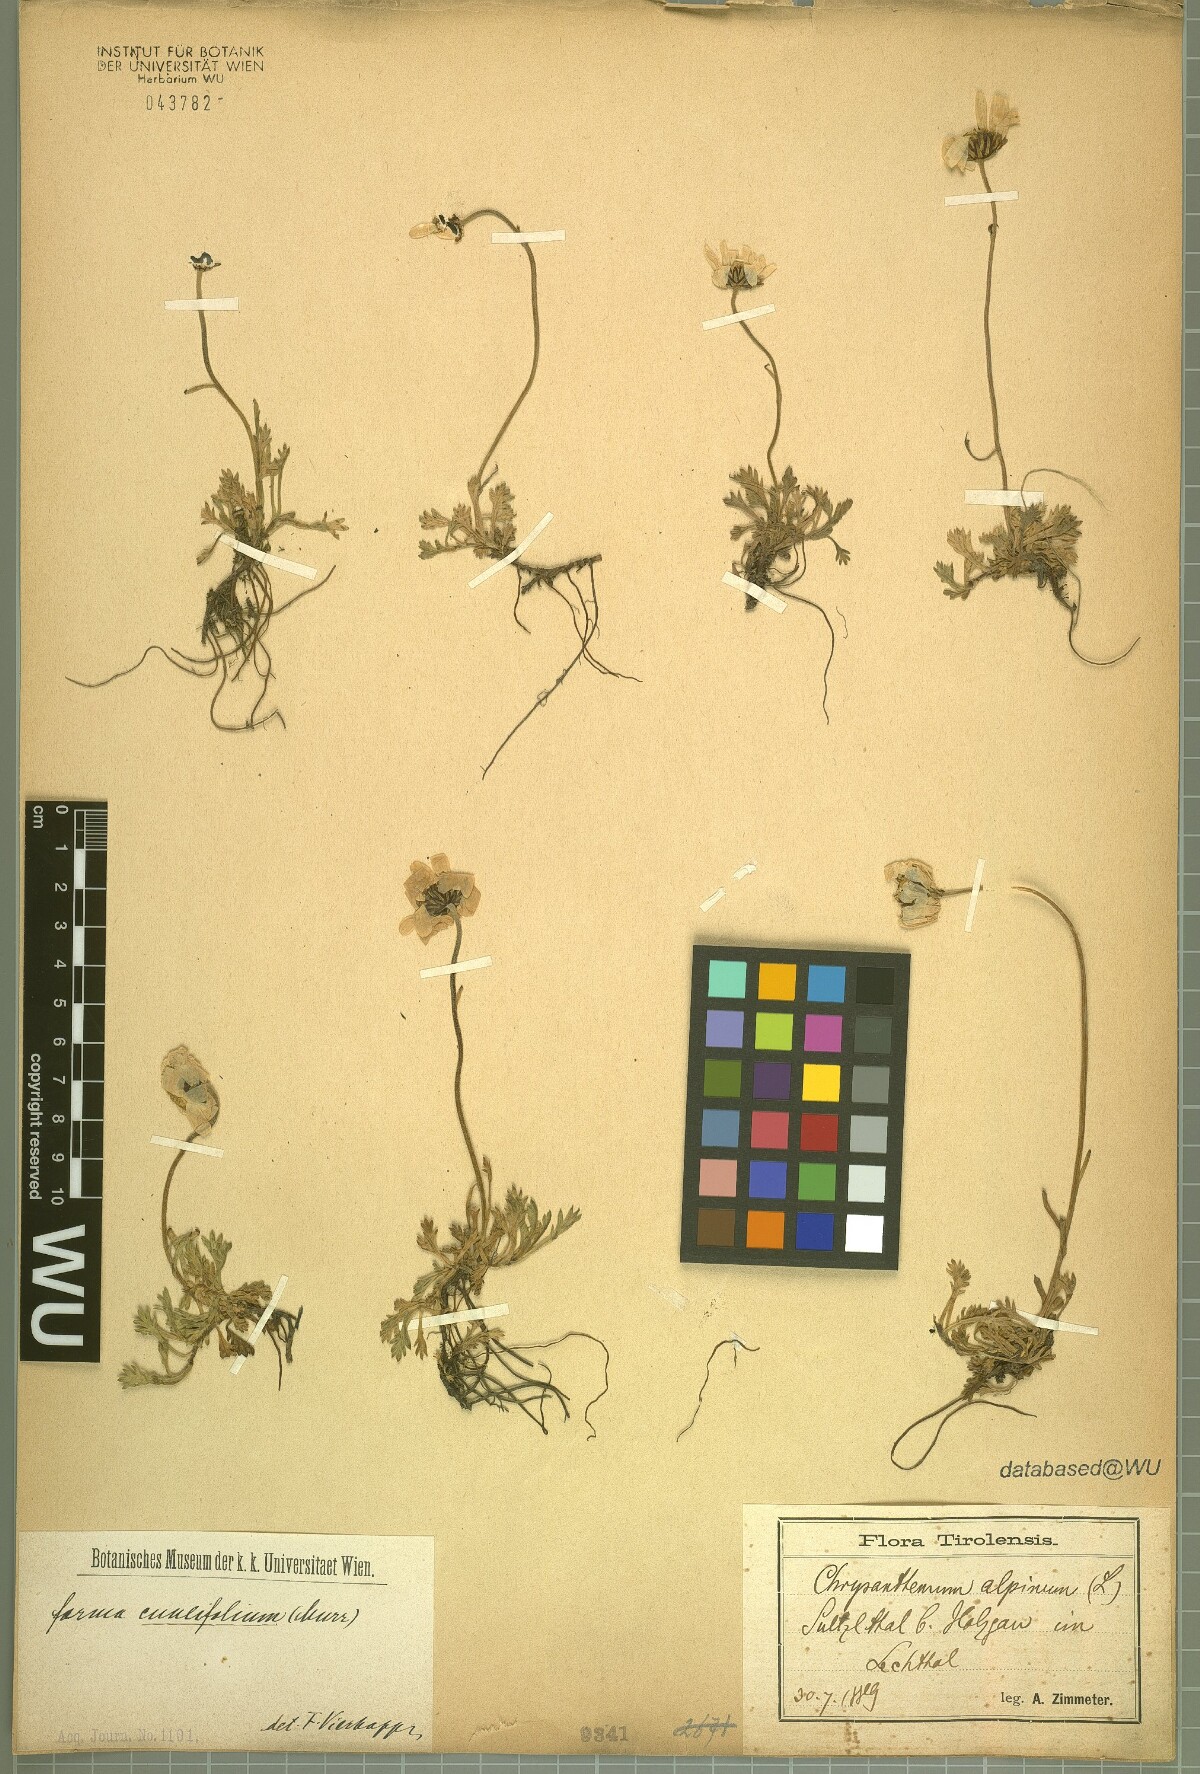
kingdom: Plantae
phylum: Tracheophyta
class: Magnoliopsida
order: Asterales
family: Asteraceae
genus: Leucanthemopsis
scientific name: Leucanthemopsis alpina
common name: Alpine moon daisy
